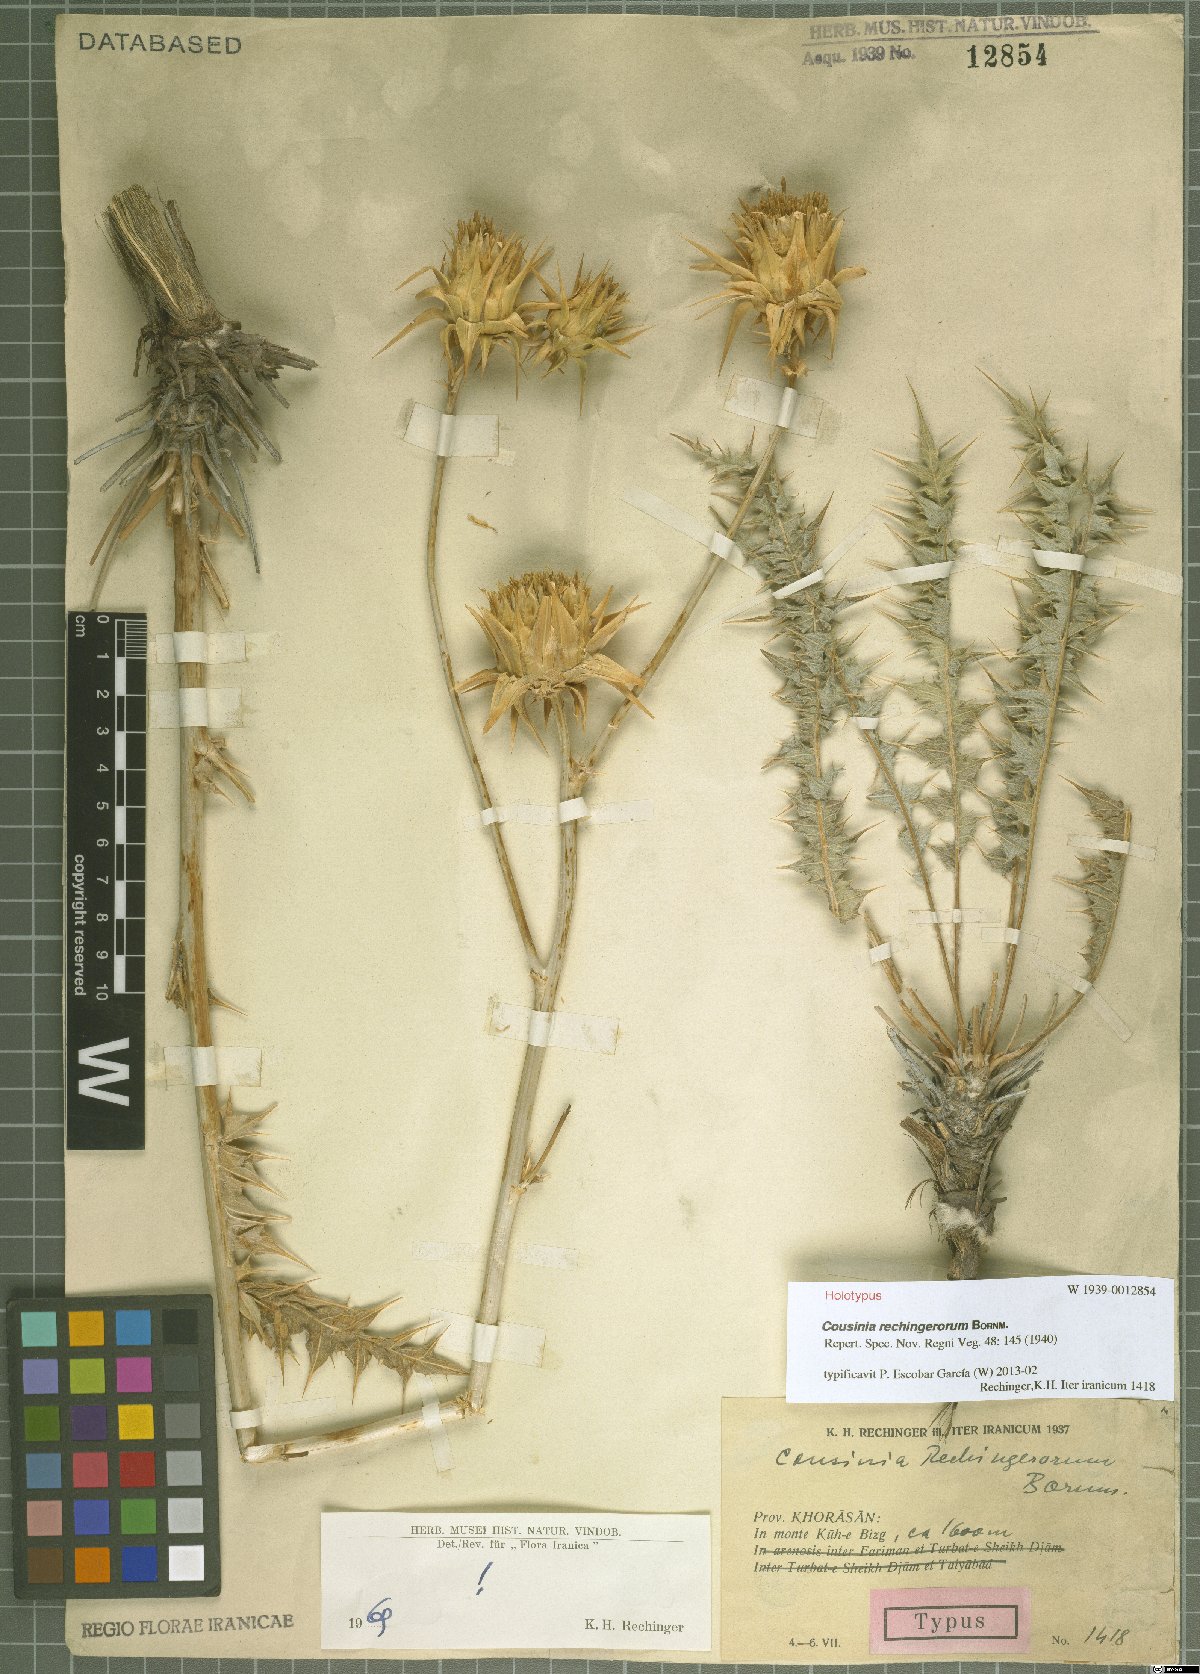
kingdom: Plantae
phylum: Tracheophyta
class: Magnoliopsida
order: Asterales
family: Asteraceae
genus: Cousinia
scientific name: Cousinia rechingerorum
